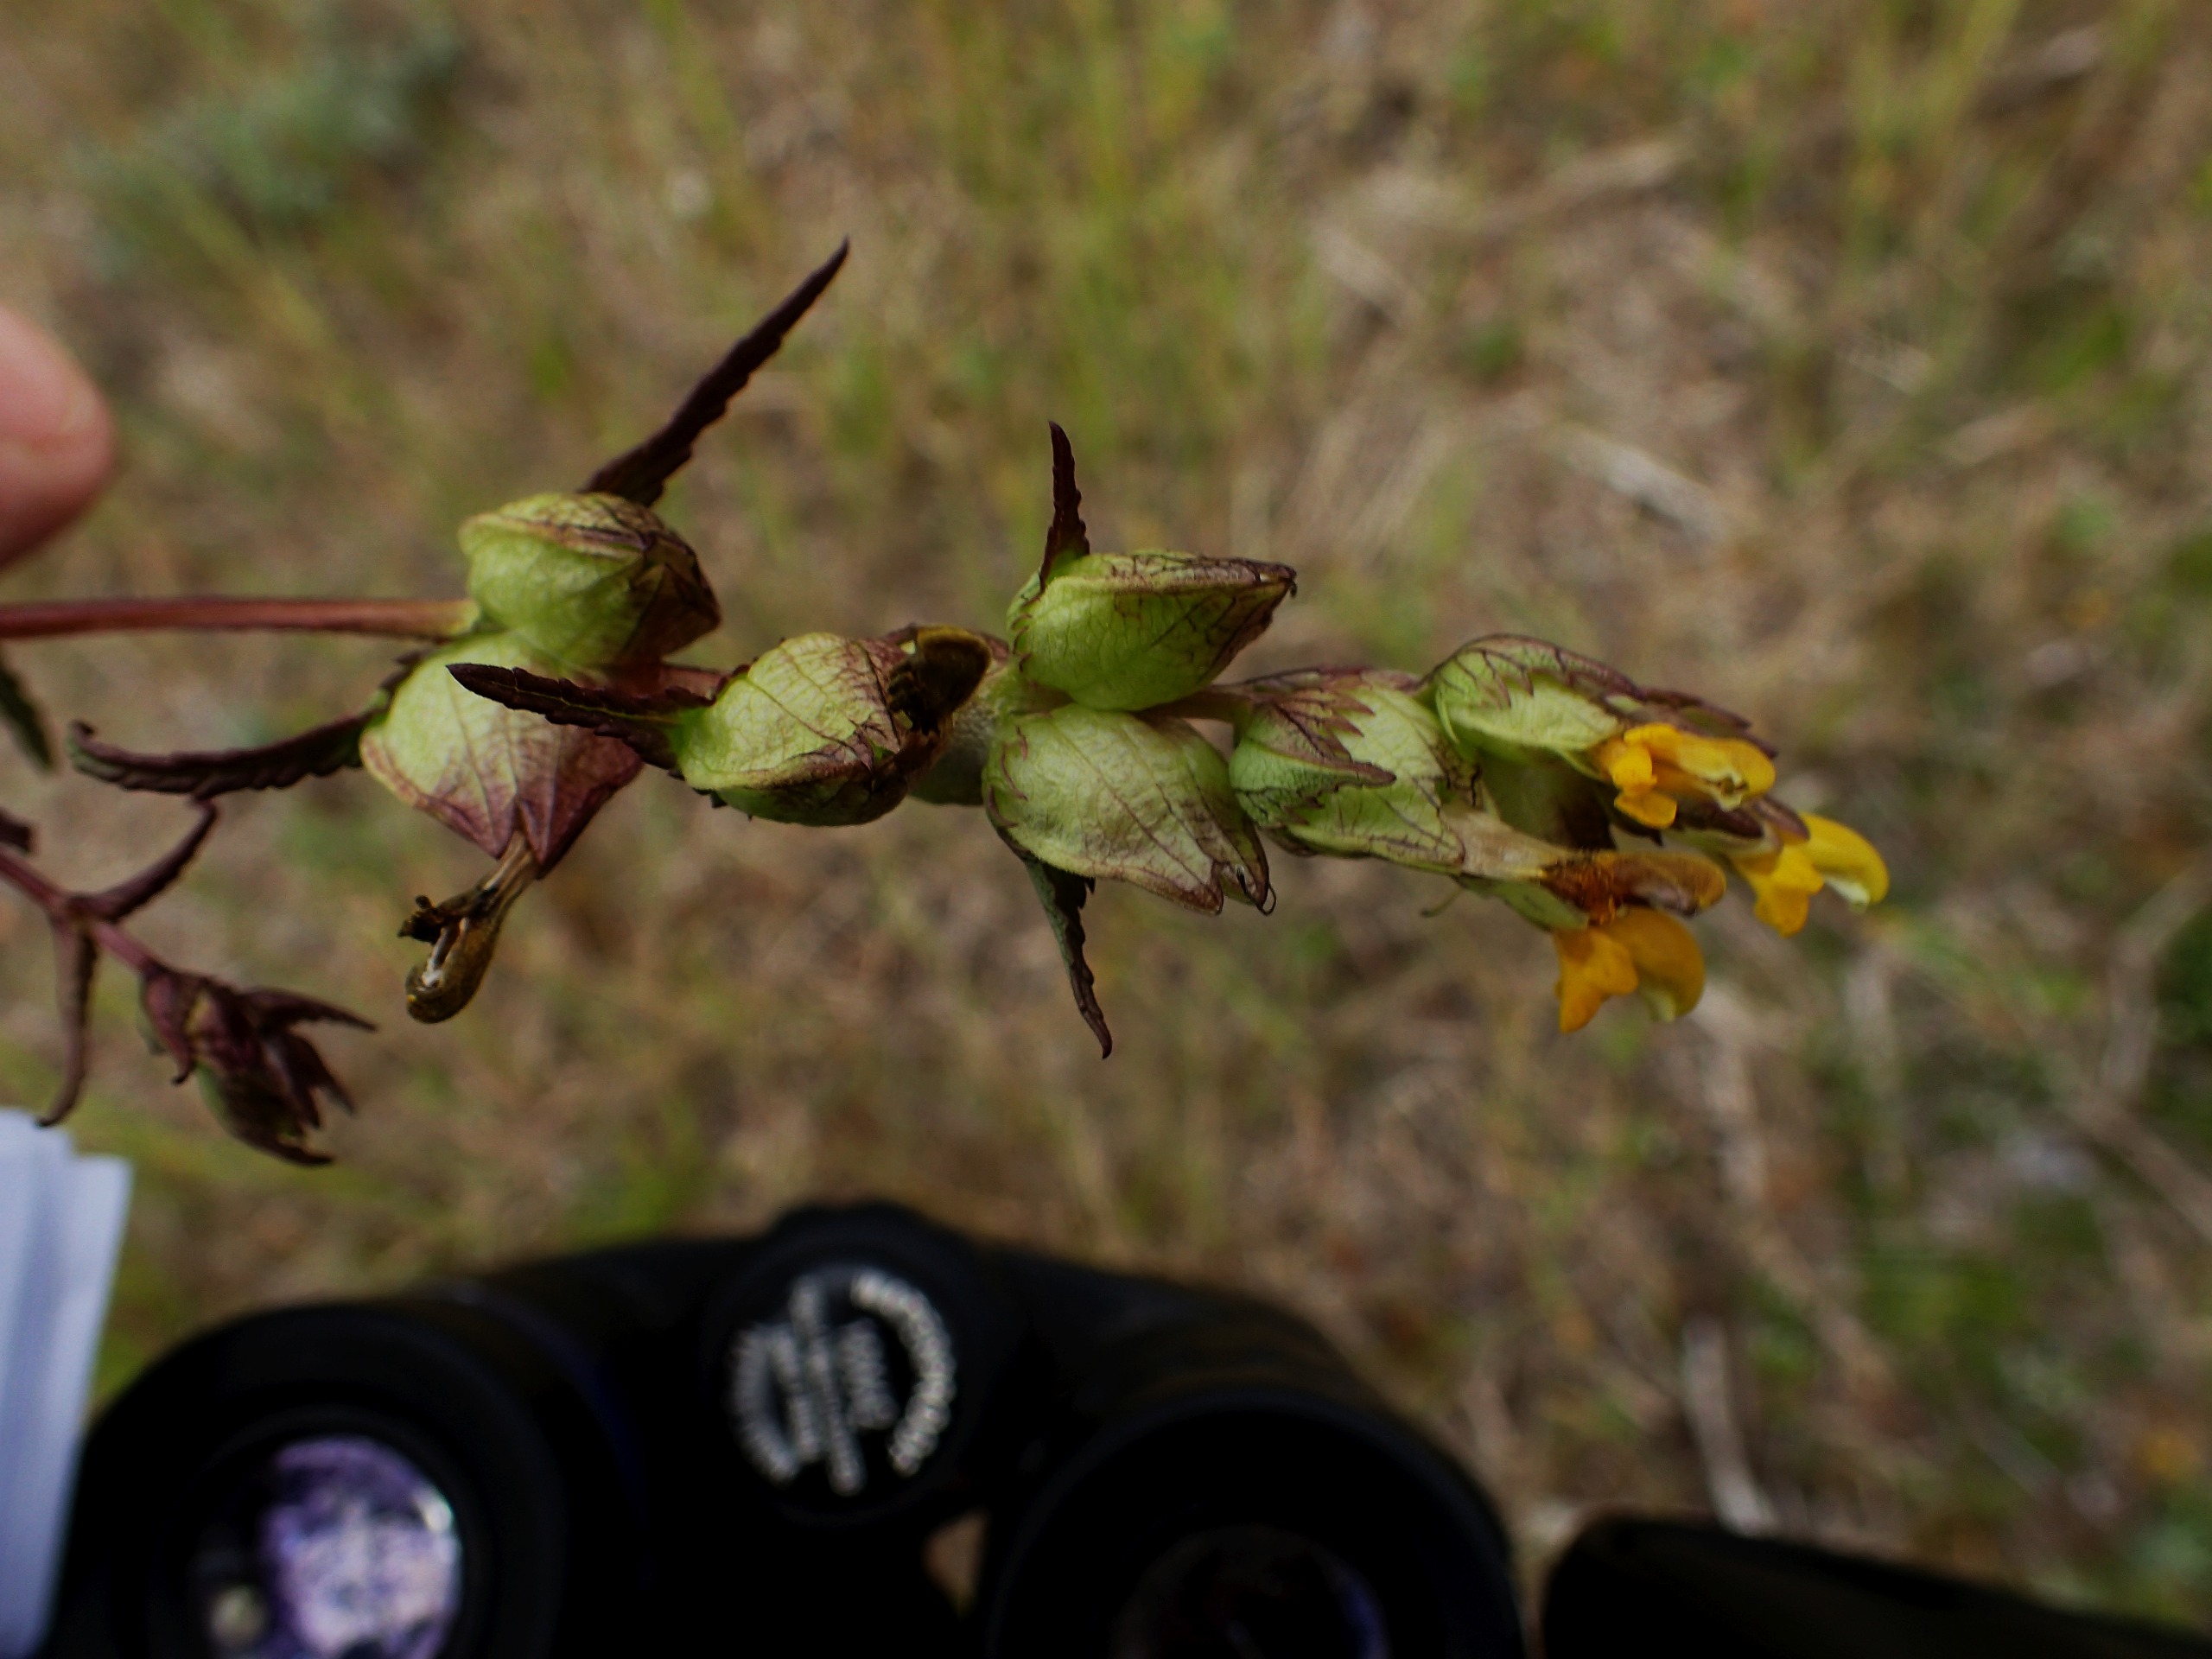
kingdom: Plantae
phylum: Tracheophyta
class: Magnoliopsida
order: Lamiales
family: Orobanchaceae
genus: Rhinanthus
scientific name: Rhinanthus minor
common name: Liden skjaller
